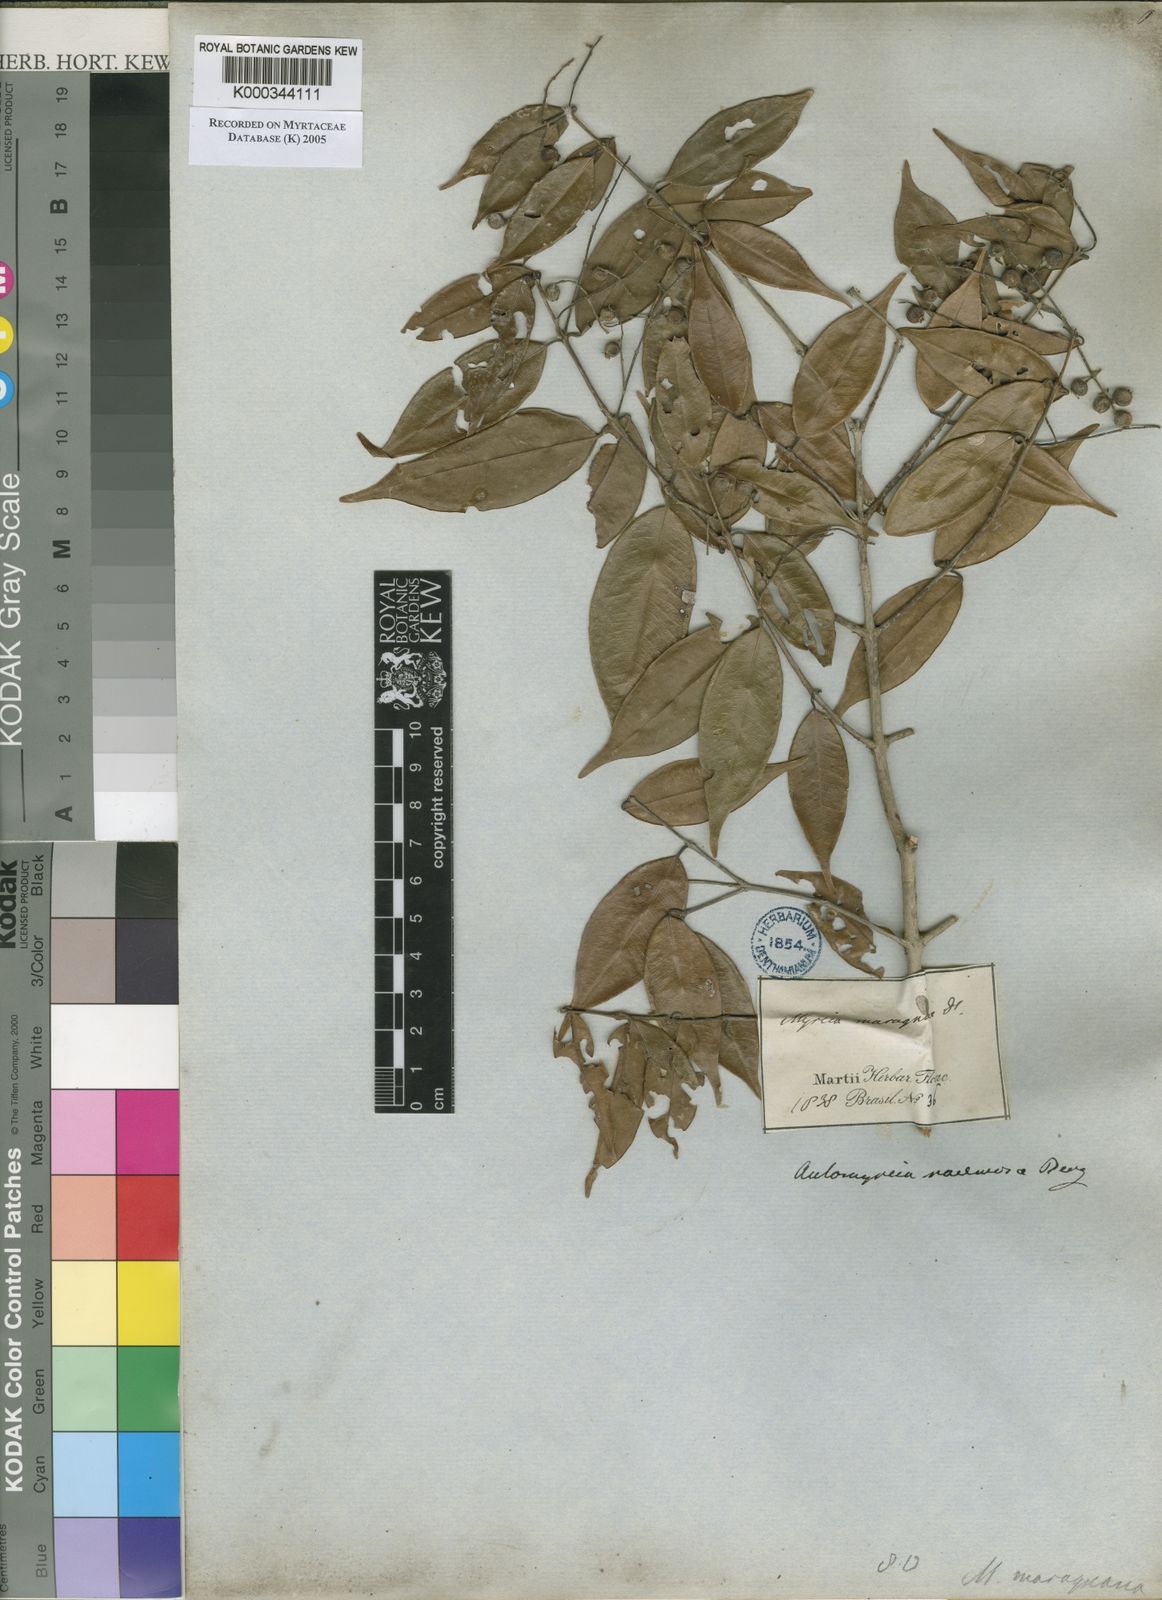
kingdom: Plantae
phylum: Tracheophyta
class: Magnoliopsida
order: Myrtales
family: Myrtaceae
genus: Myrcia
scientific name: Myrcia racemosa
